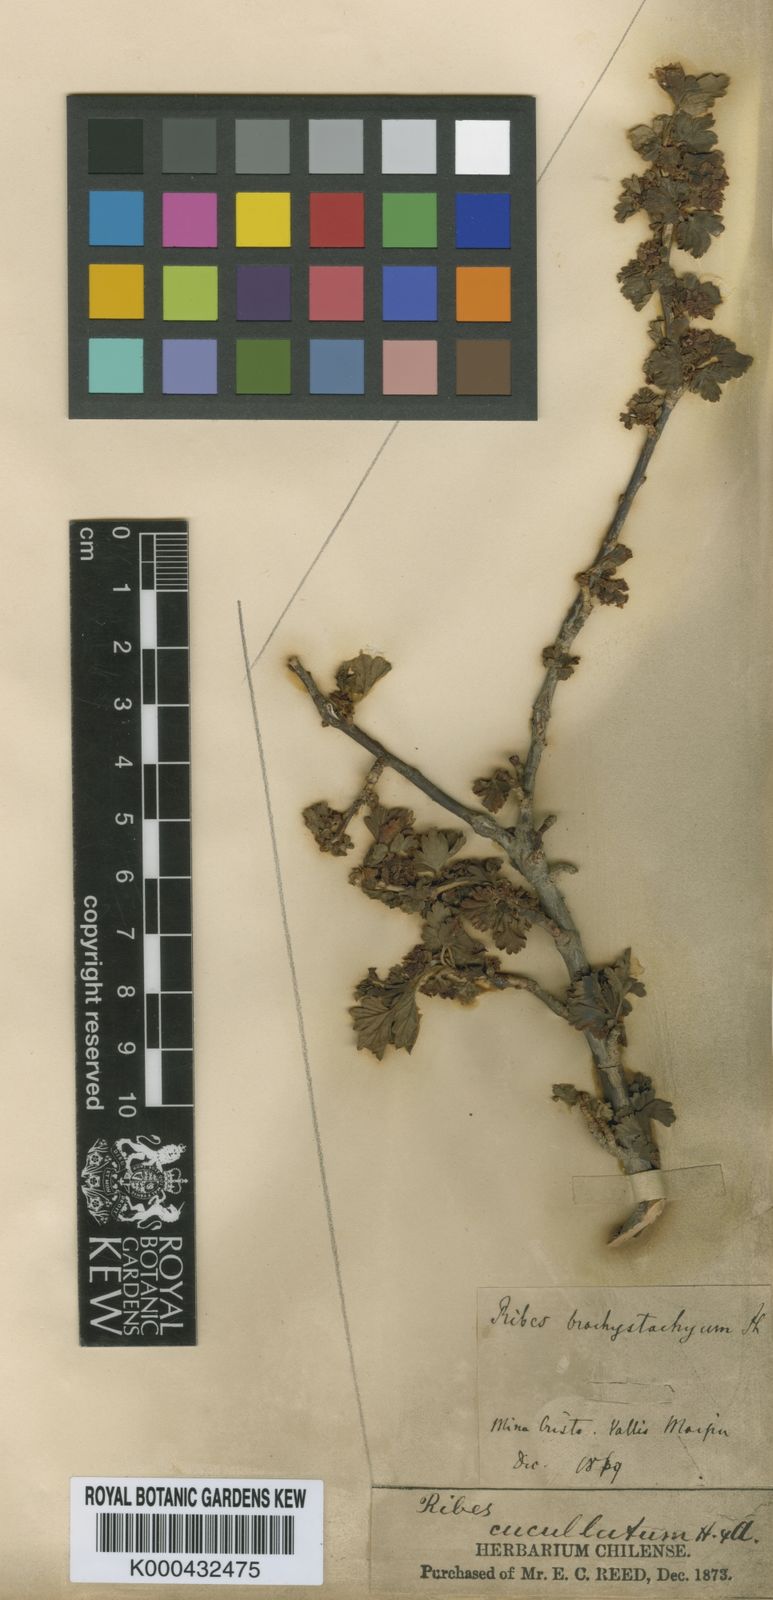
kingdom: Plantae
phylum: Tracheophyta
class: Magnoliopsida
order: Saxifragales
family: Grossulariaceae
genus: Ribes
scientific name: Ribes cucullatum
